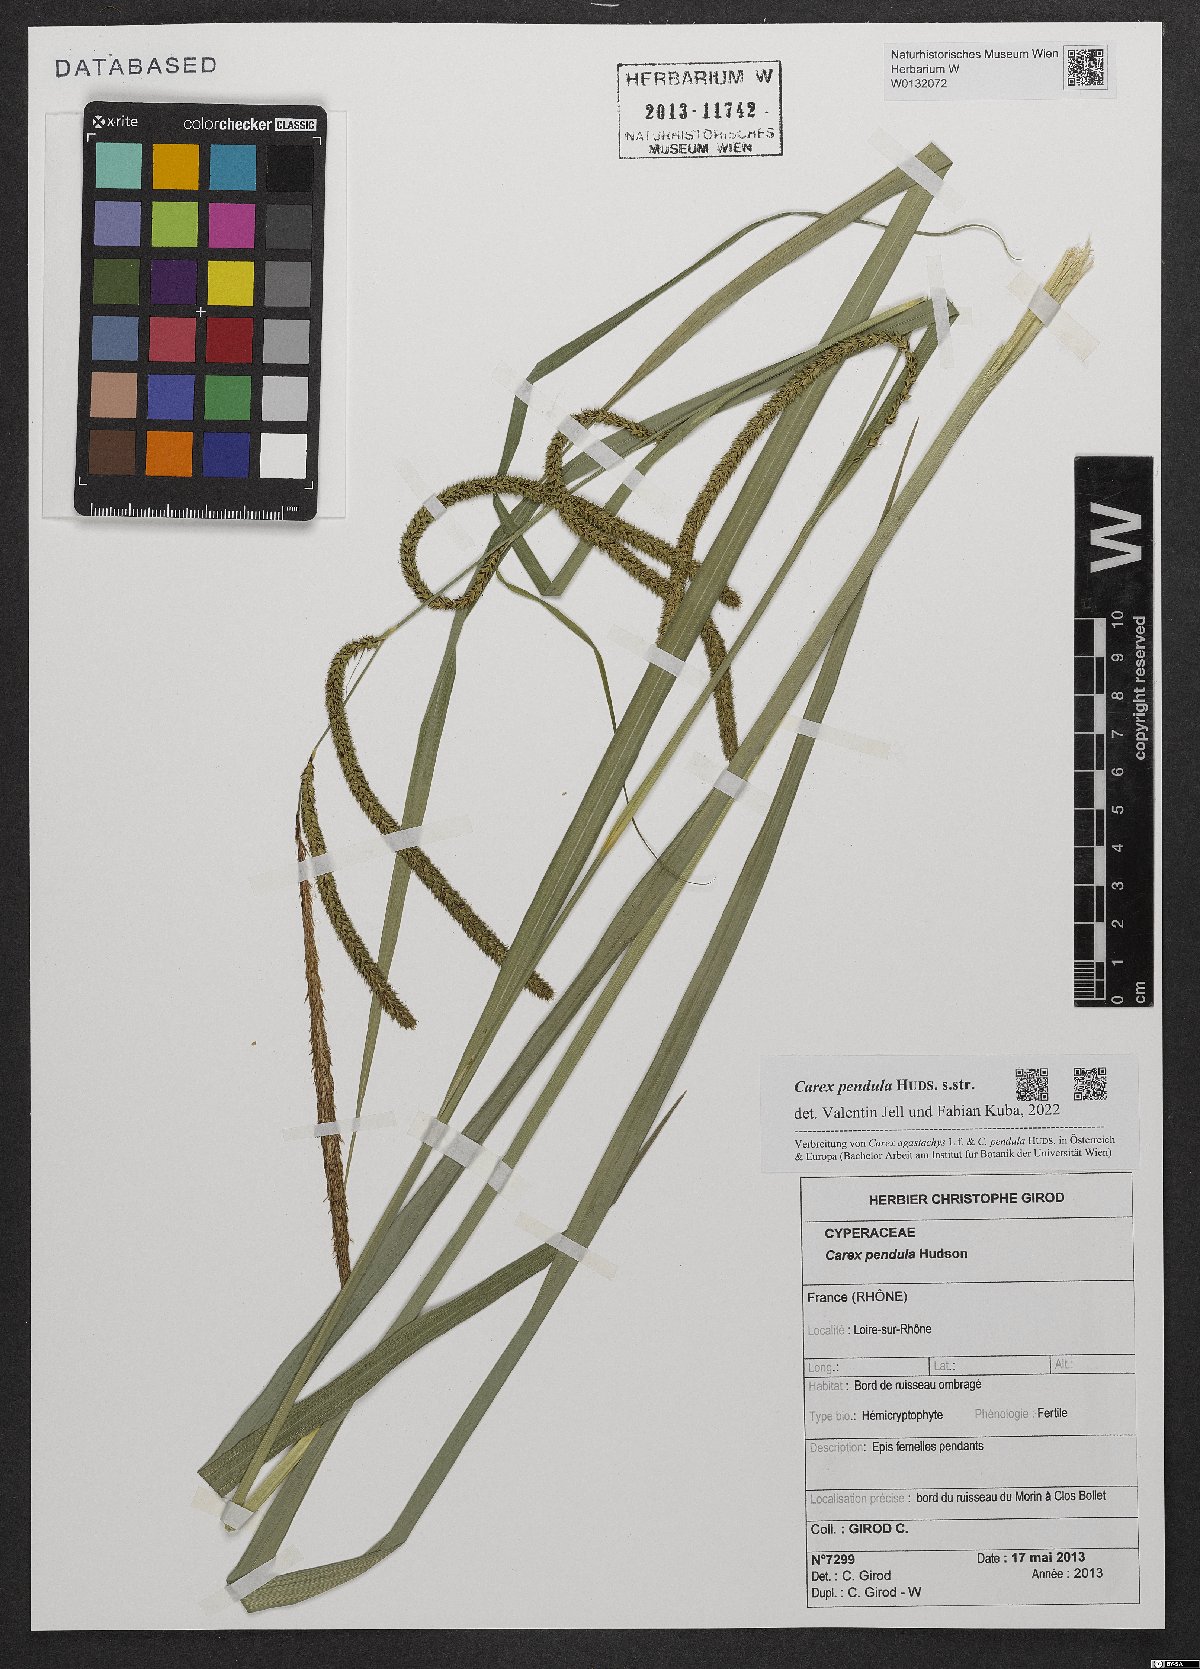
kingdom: Plantae
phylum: Tracheophyta
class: Liliopsida
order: Poales
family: Cyperaceae
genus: Carex
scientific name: Carex pendula
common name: Pendulous sedge
